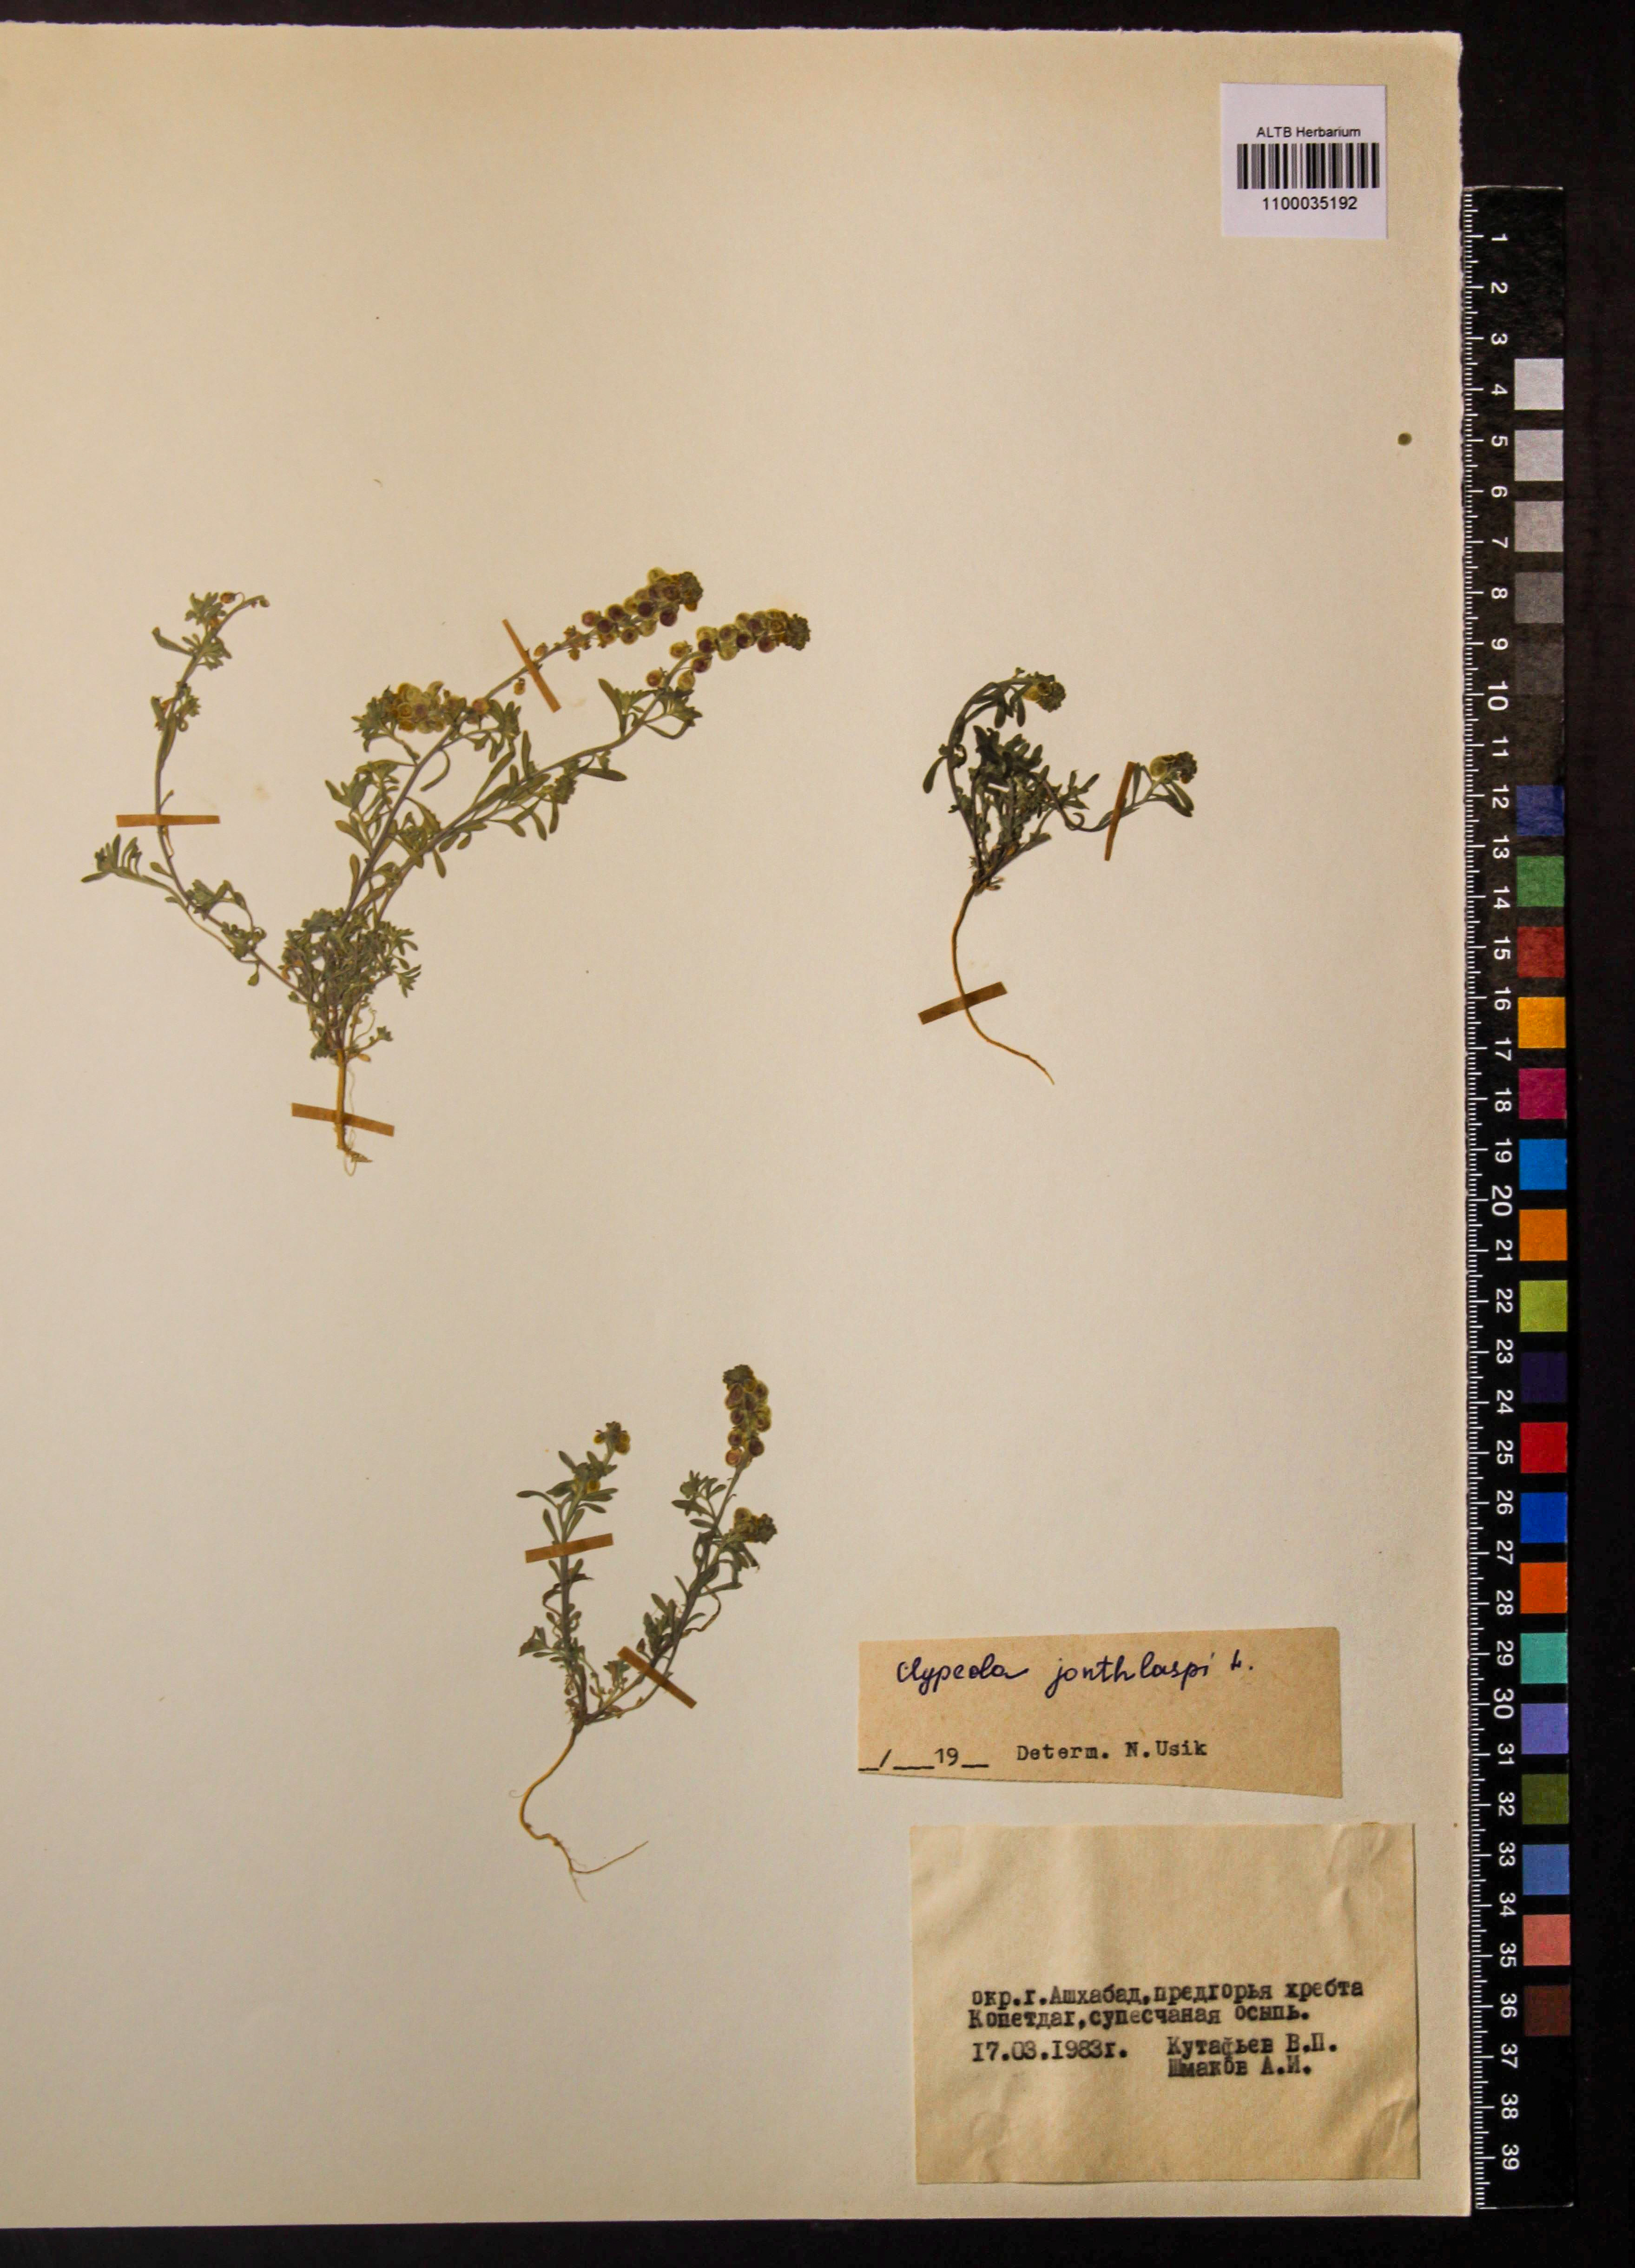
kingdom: Plantae
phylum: Tracheophyta
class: Magnoliopsida
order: Brassicales
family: Brassicaceae
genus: Clypeola
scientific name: Clypeola jonthlaspi
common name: Disk cress
